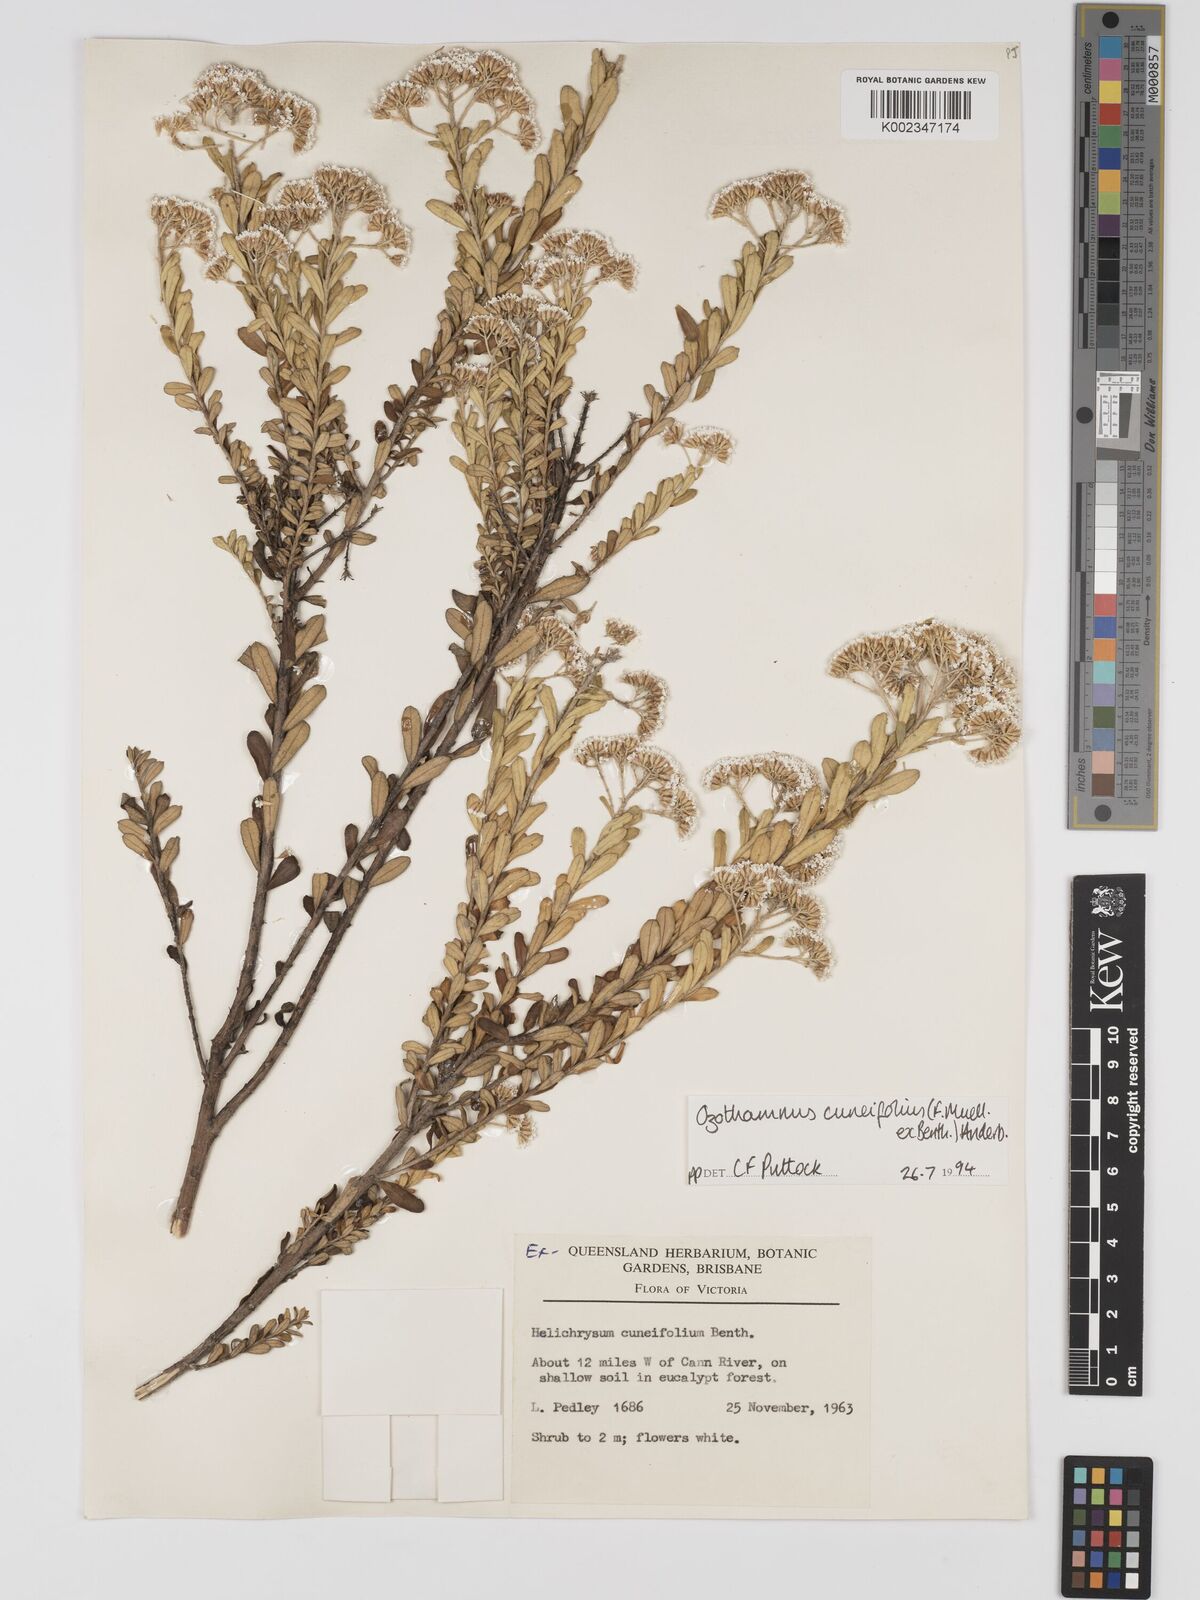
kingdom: Plantae
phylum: Tracheophyta
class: Magnoliopsida
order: Asterales
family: Asteraceae
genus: Ozothamnus
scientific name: Ozothamnus cuneifolius
